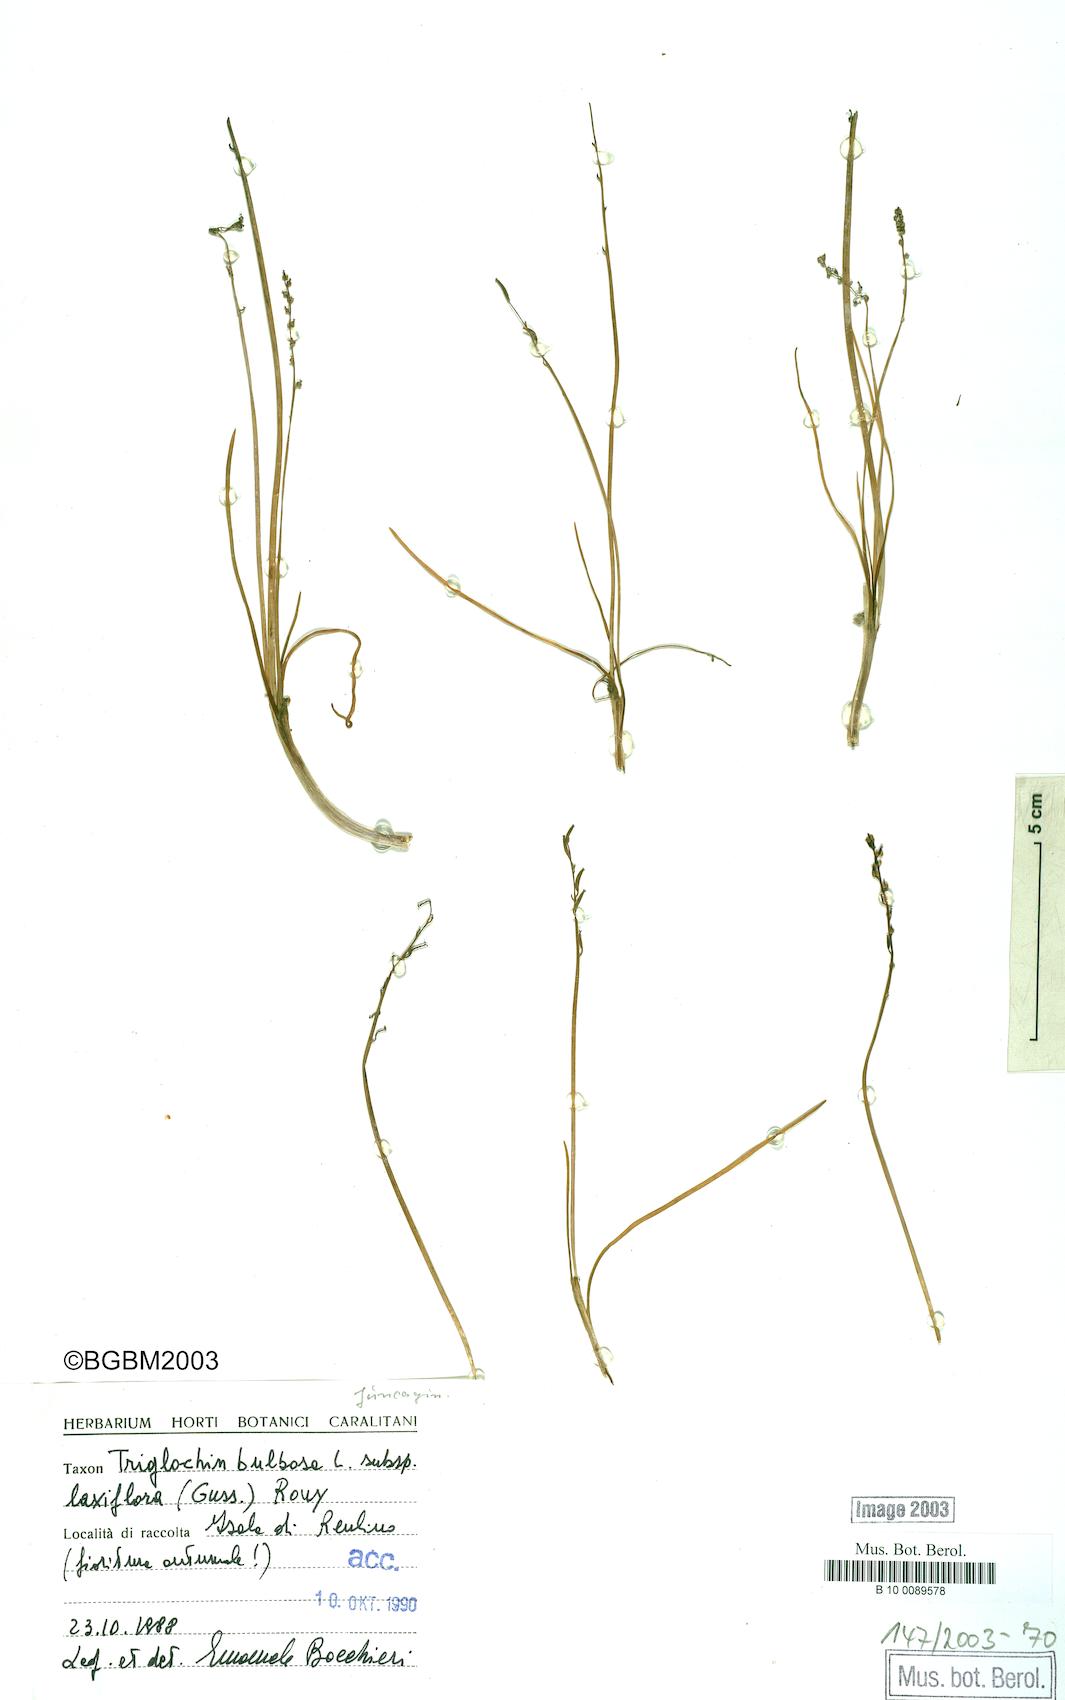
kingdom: Plantae
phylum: Tracheophyta
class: Liliopsida
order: Alismatales
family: Juncaginaceae
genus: Triglochin
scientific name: Triglochin laxiflora
